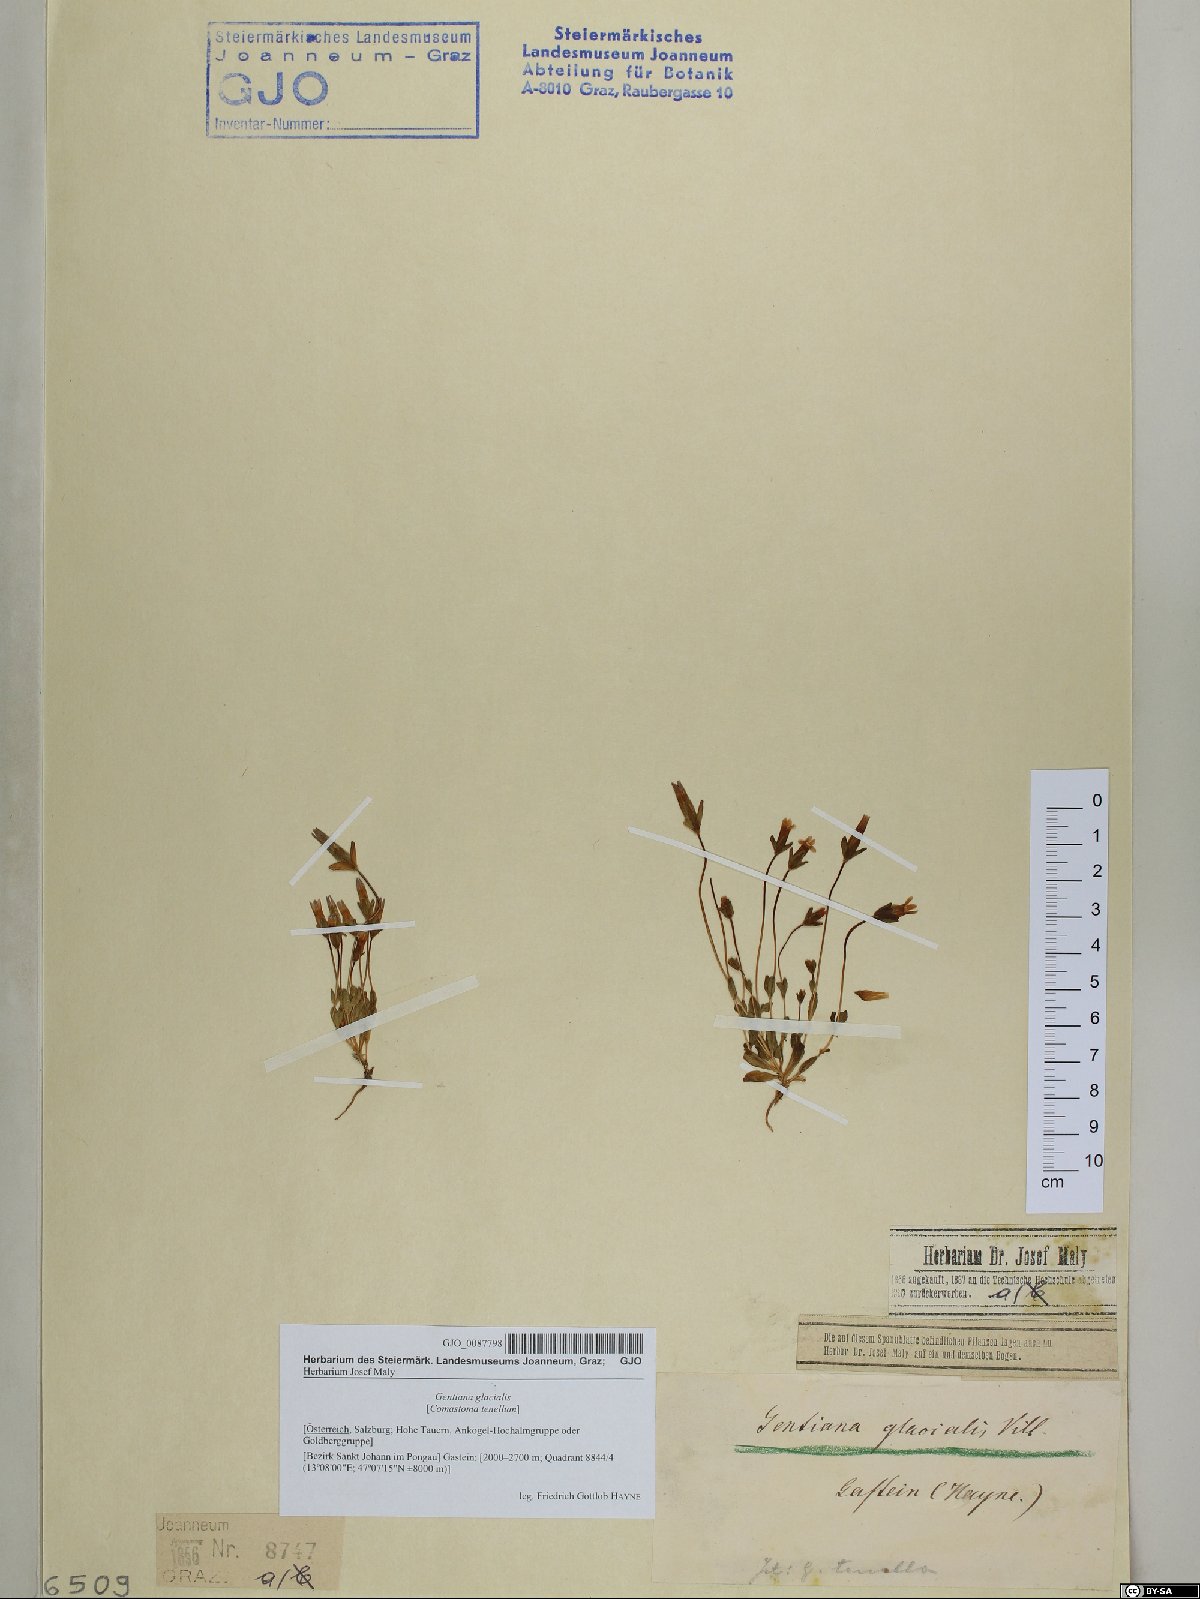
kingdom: Plantae
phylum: Tracheophyta
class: Magnoliopsida
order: Caryophyllales
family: Caryophyllaceae
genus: Dianthus
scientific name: Dianthus deltoides
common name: Maiden pink
